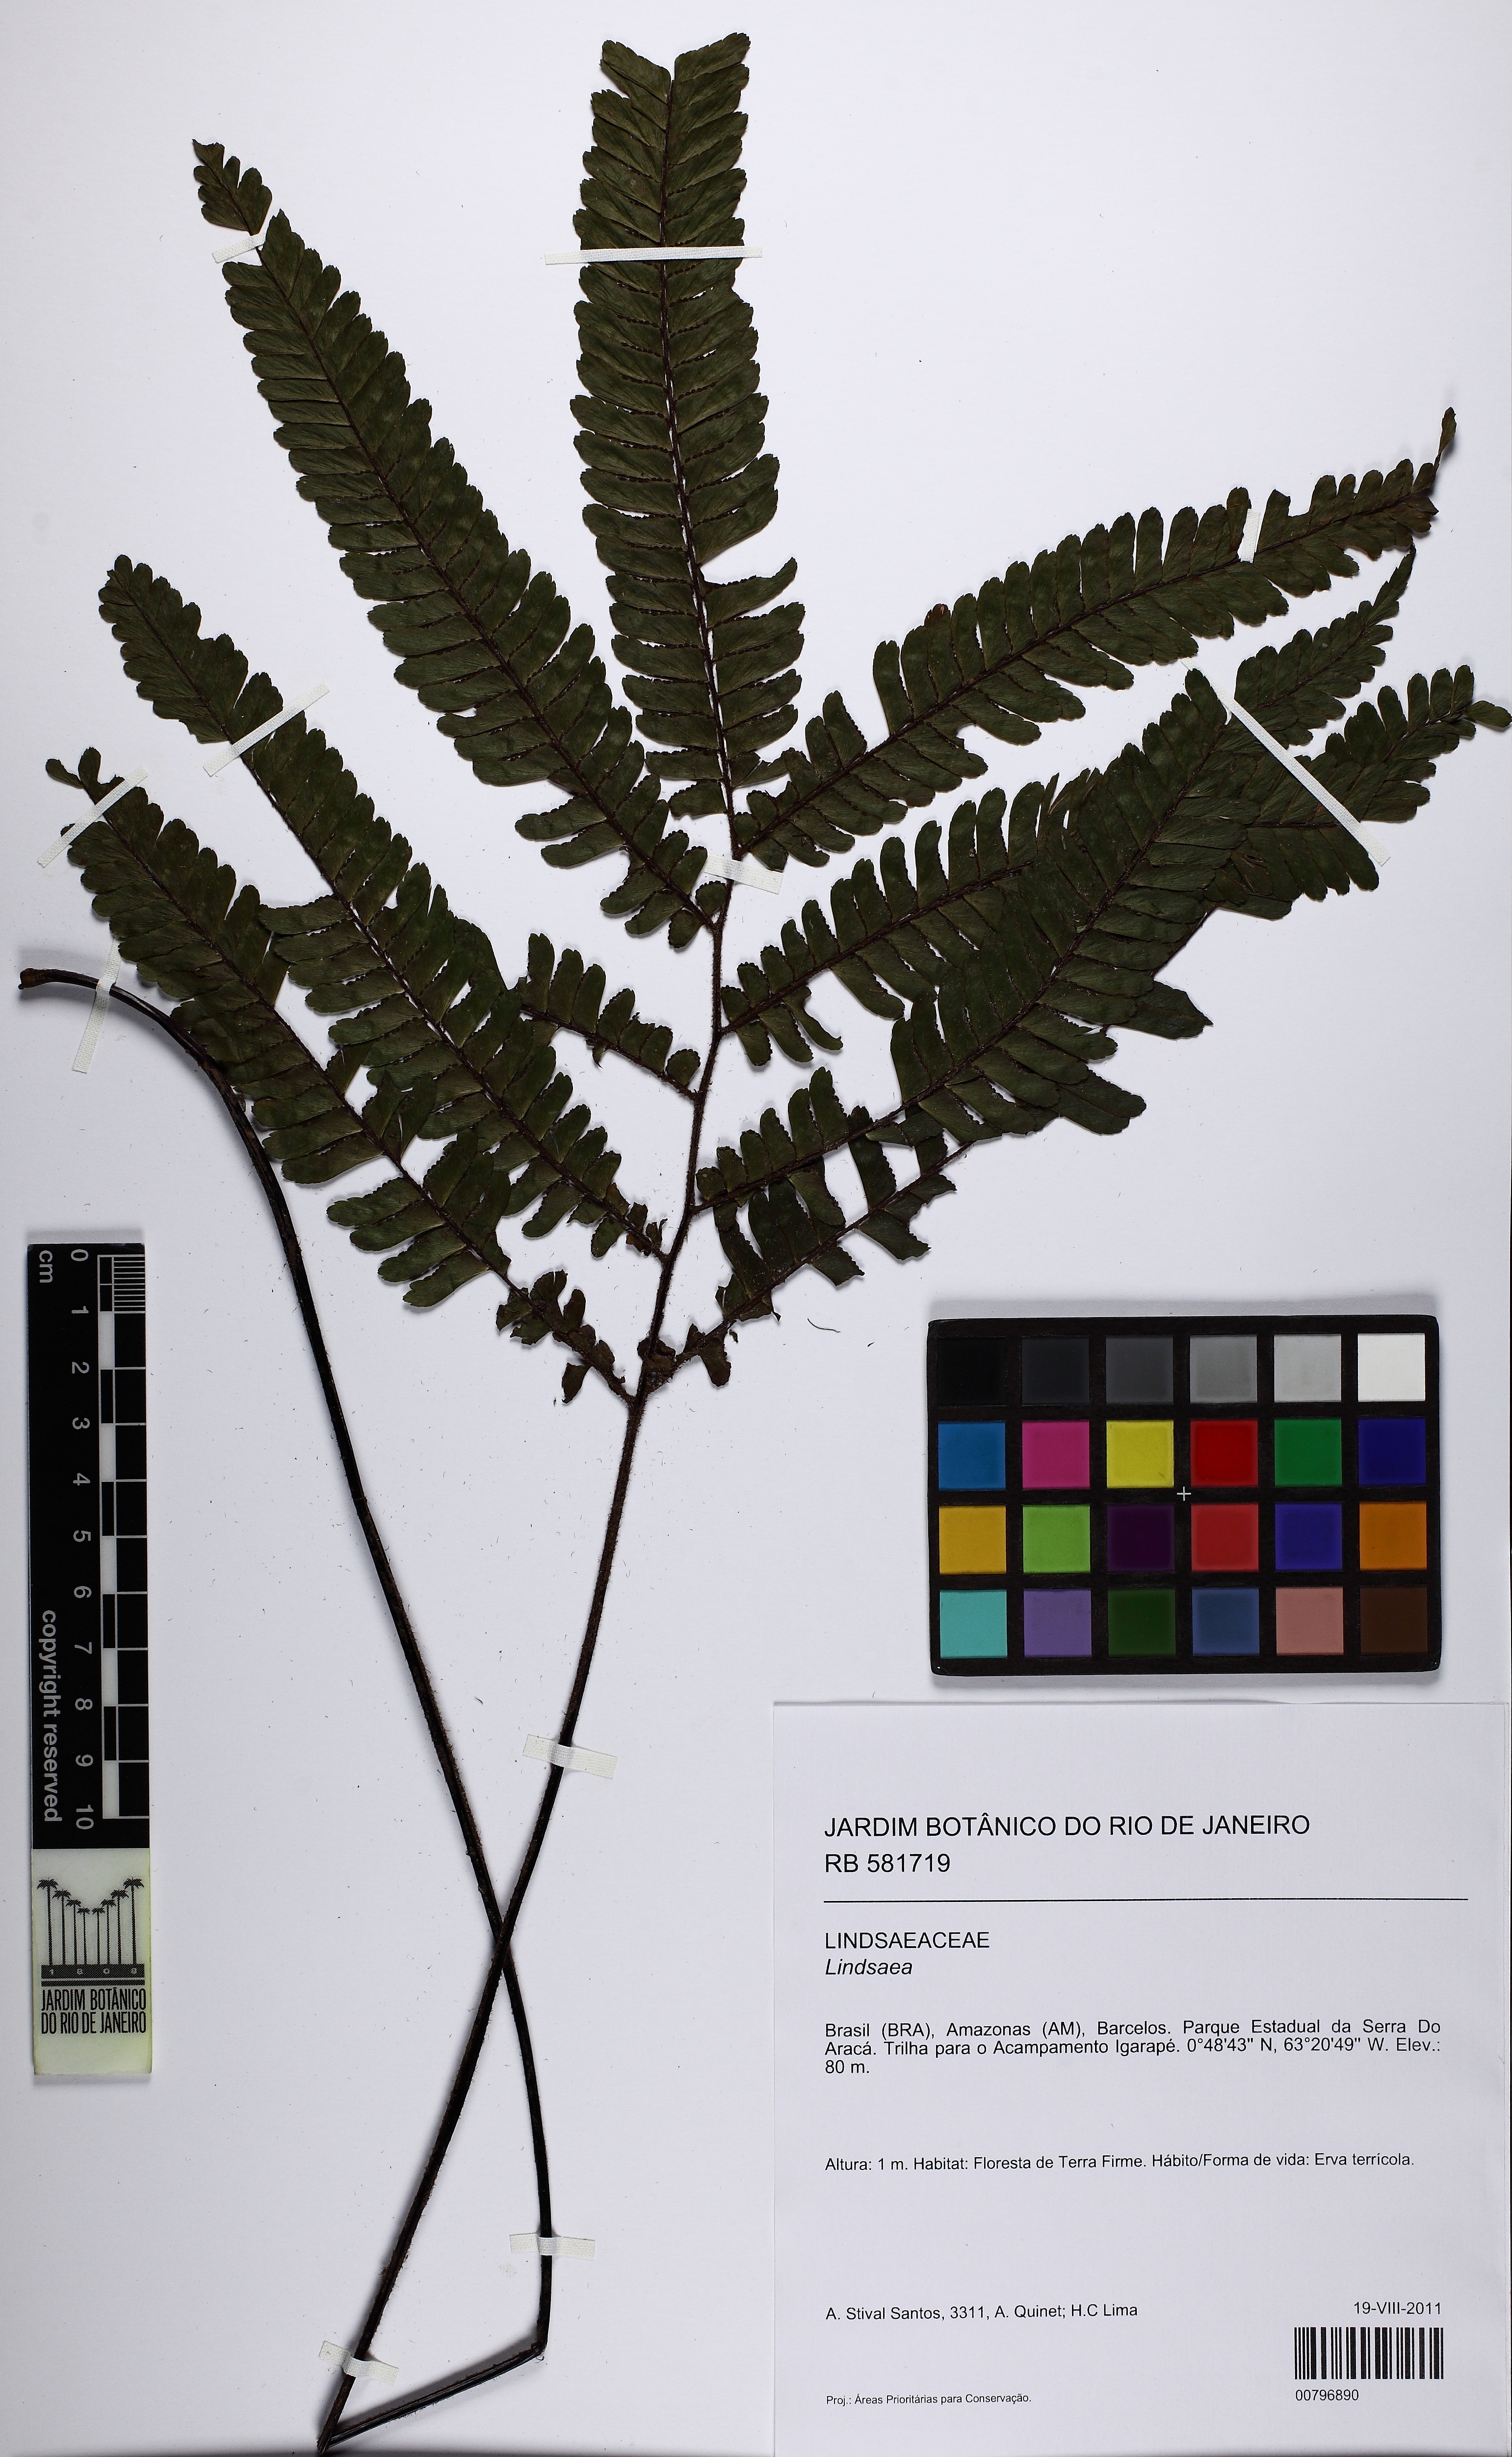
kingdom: Plantae
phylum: Tracheophyta
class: Polypodiopsida
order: Polypodiales
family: Lindsaeaceae
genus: Lindsaea
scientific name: Lindsaea
